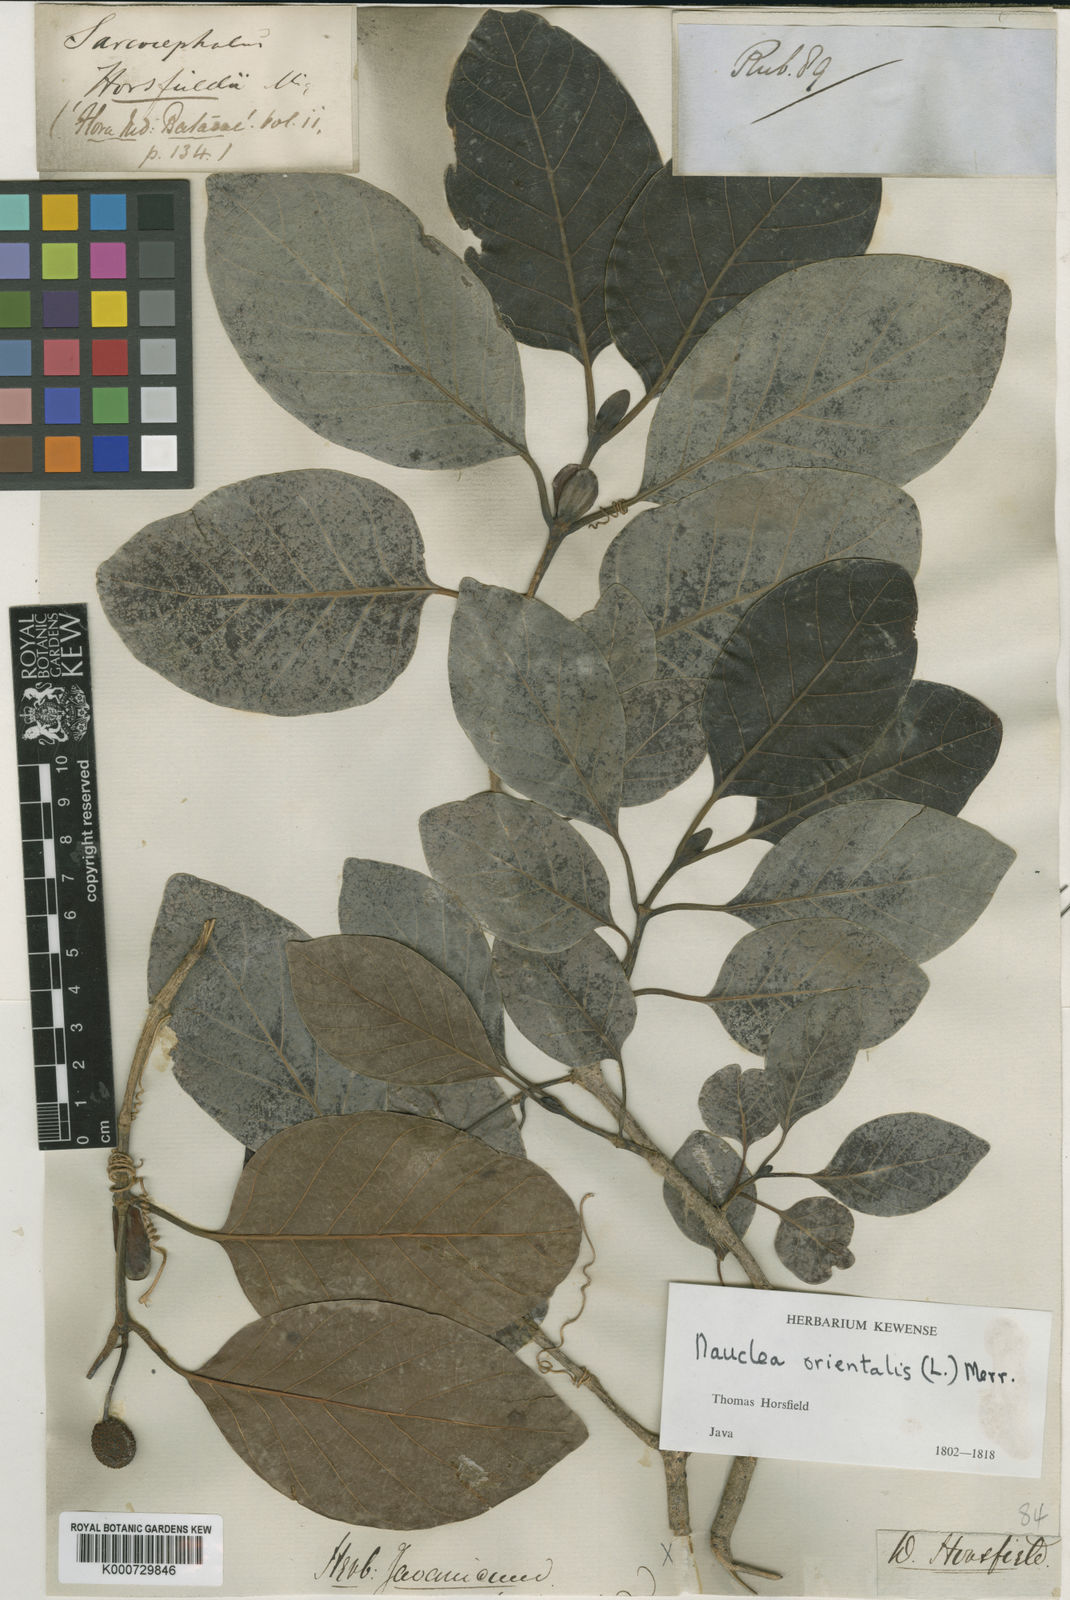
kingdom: Plantae
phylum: Tracheophyta
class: Magnoliopsida
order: Gentianales
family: Rubiaceae
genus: Nauclea
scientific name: Nauclea officinalis
